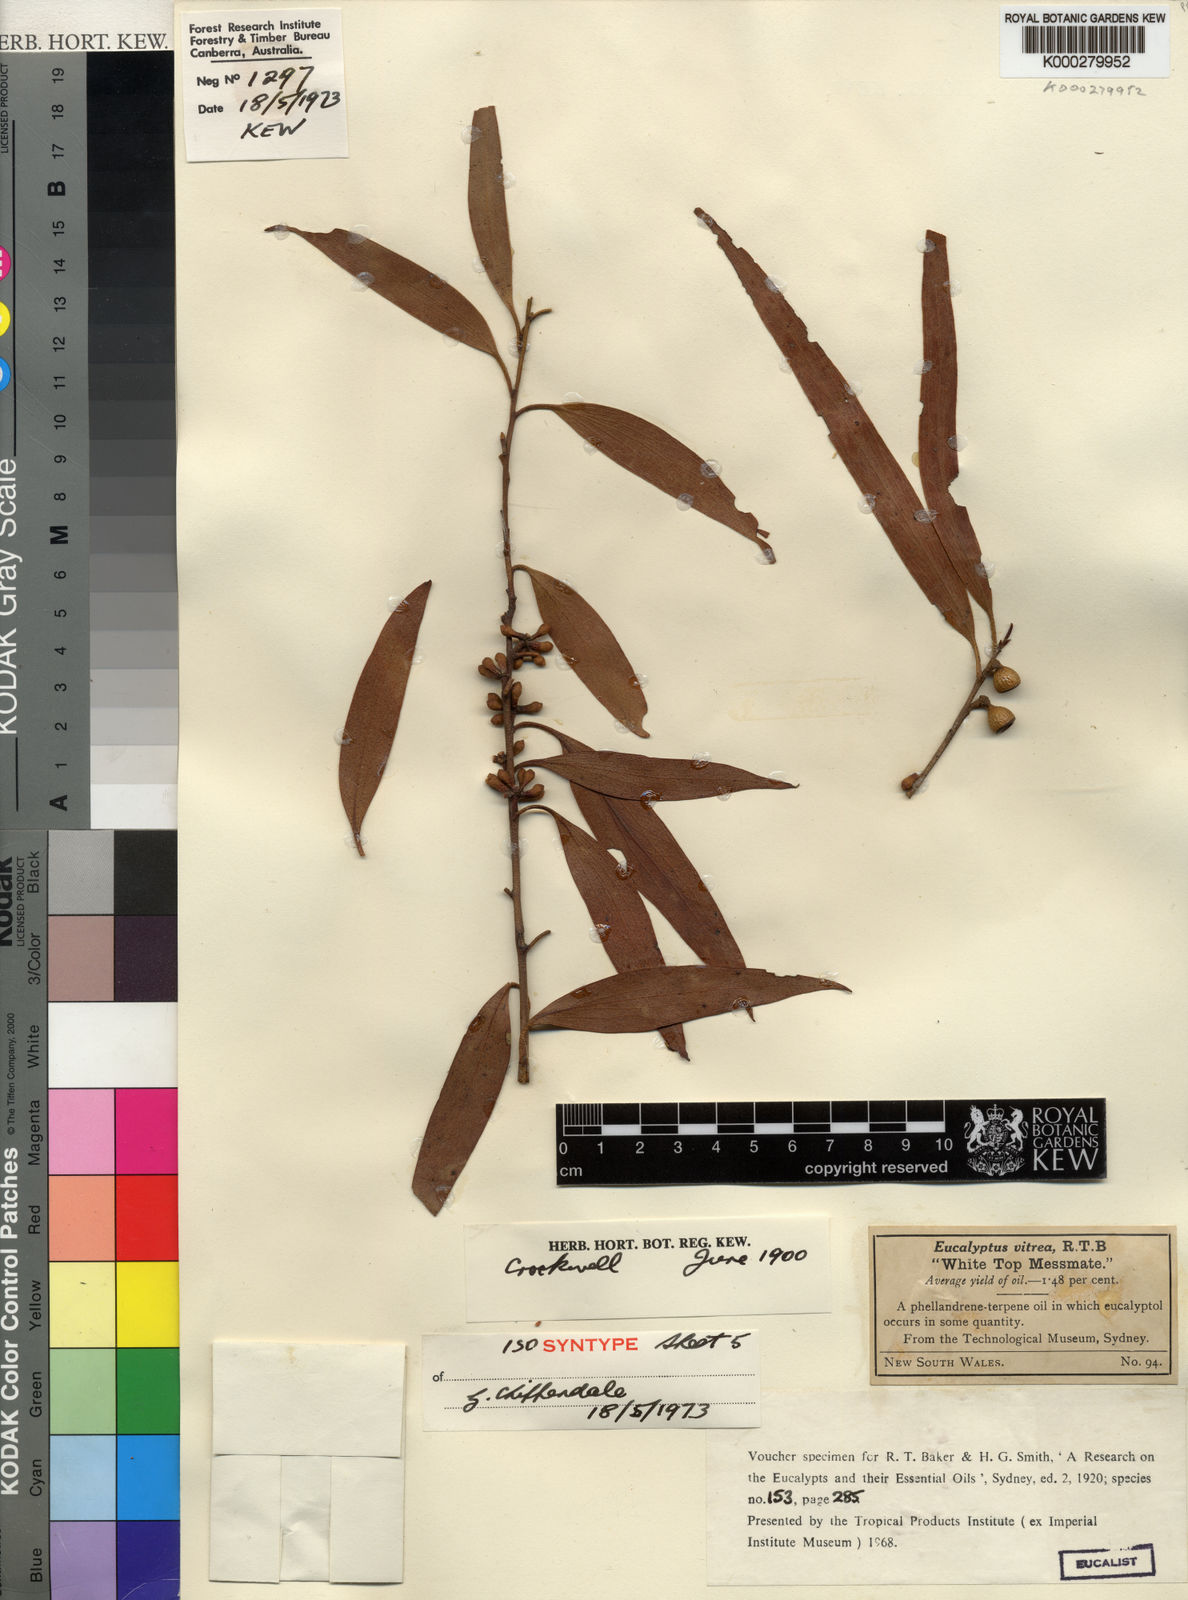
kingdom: Plantae
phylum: Tracheophyta
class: Magnoliopsida
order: Myrtales
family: Myrtaceae
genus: Eucalyptus
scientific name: Eucalyptus vitrea
